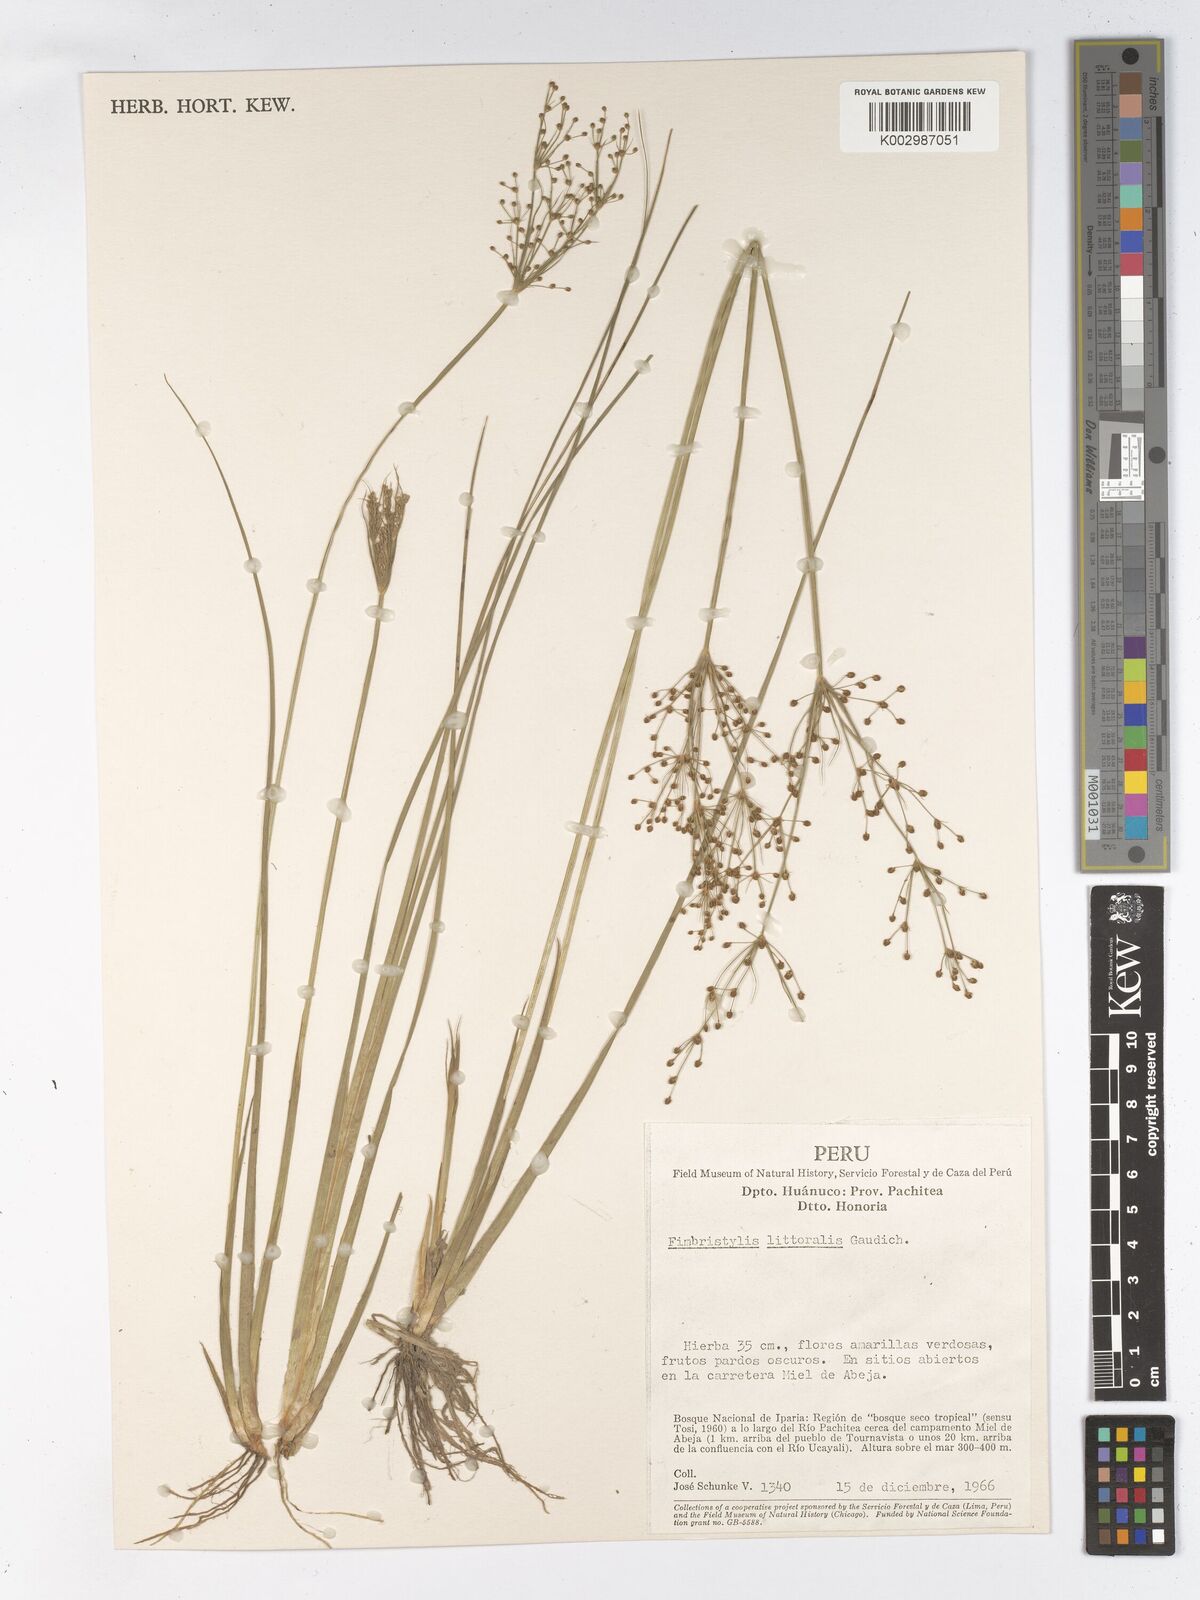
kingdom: Plantae
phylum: Tracheophyta
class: Liliopsida
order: Poales
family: Cyperaceae
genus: Fimbristylis
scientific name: Fimbristylis littoralis
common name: Fimbry
